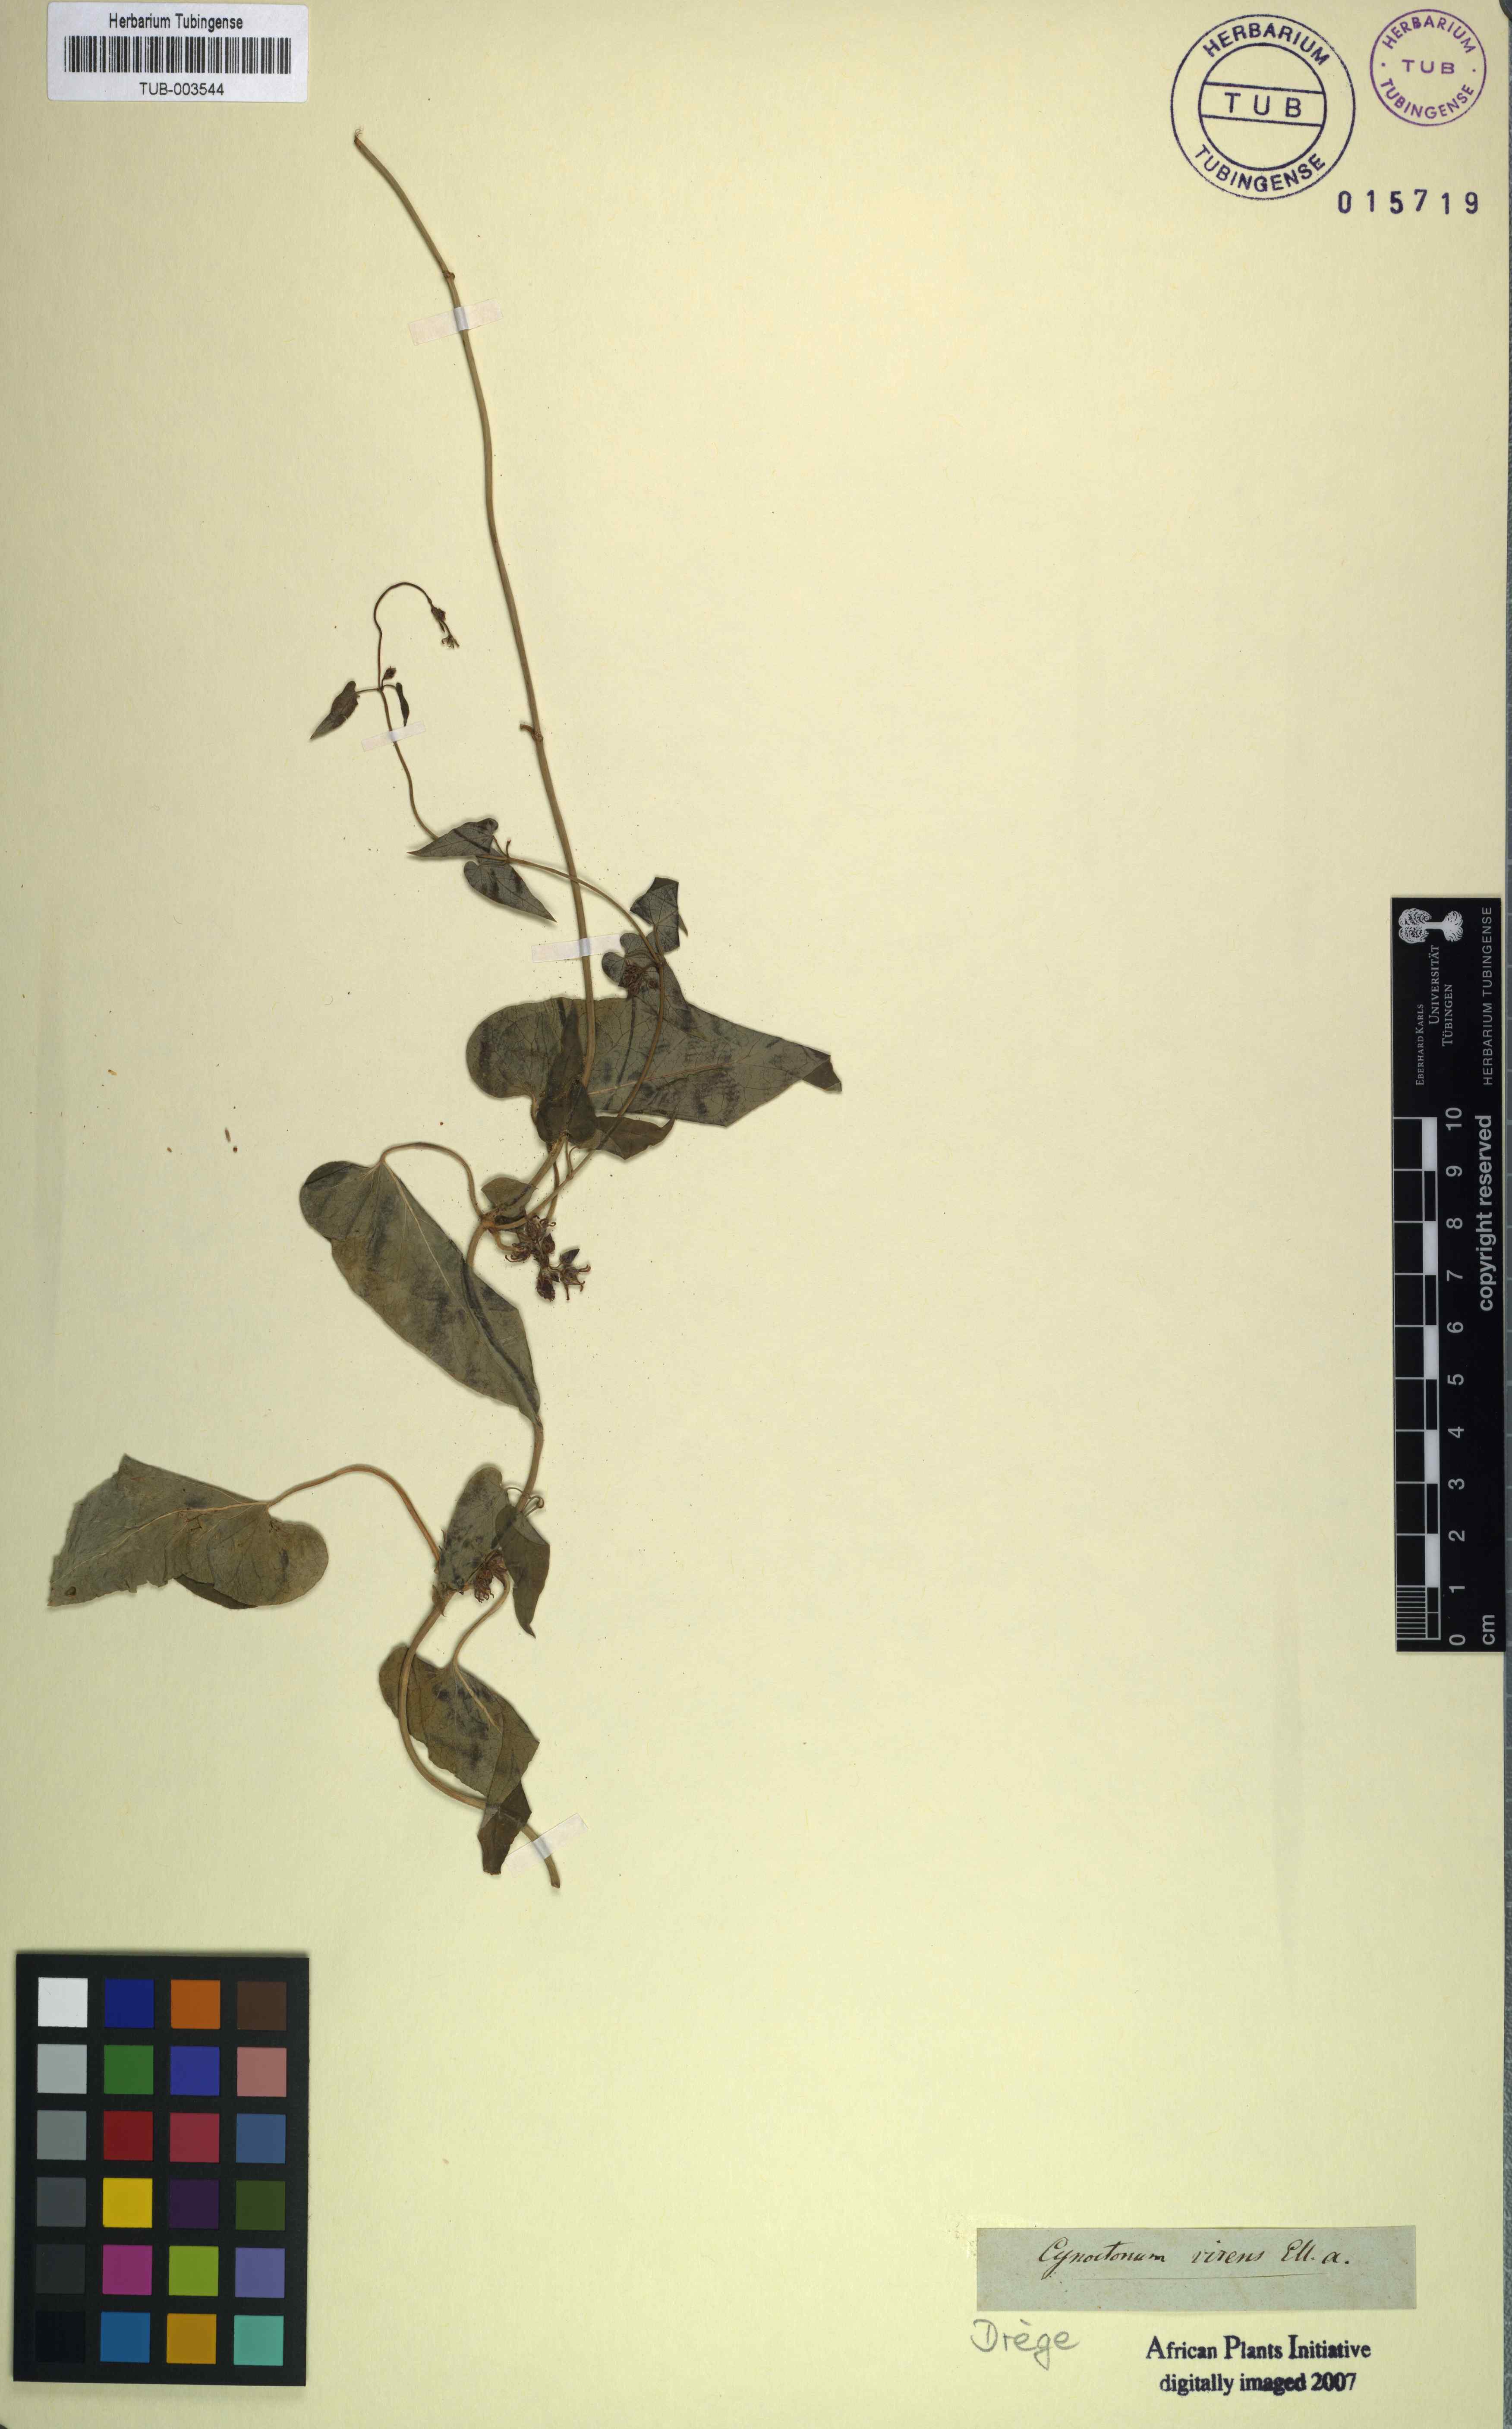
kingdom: Plantae
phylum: Tracheophyta
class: Magnoliopsida
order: Gentianales
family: Apocynaceae
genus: Cynanchum
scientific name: Cynanchum virens
